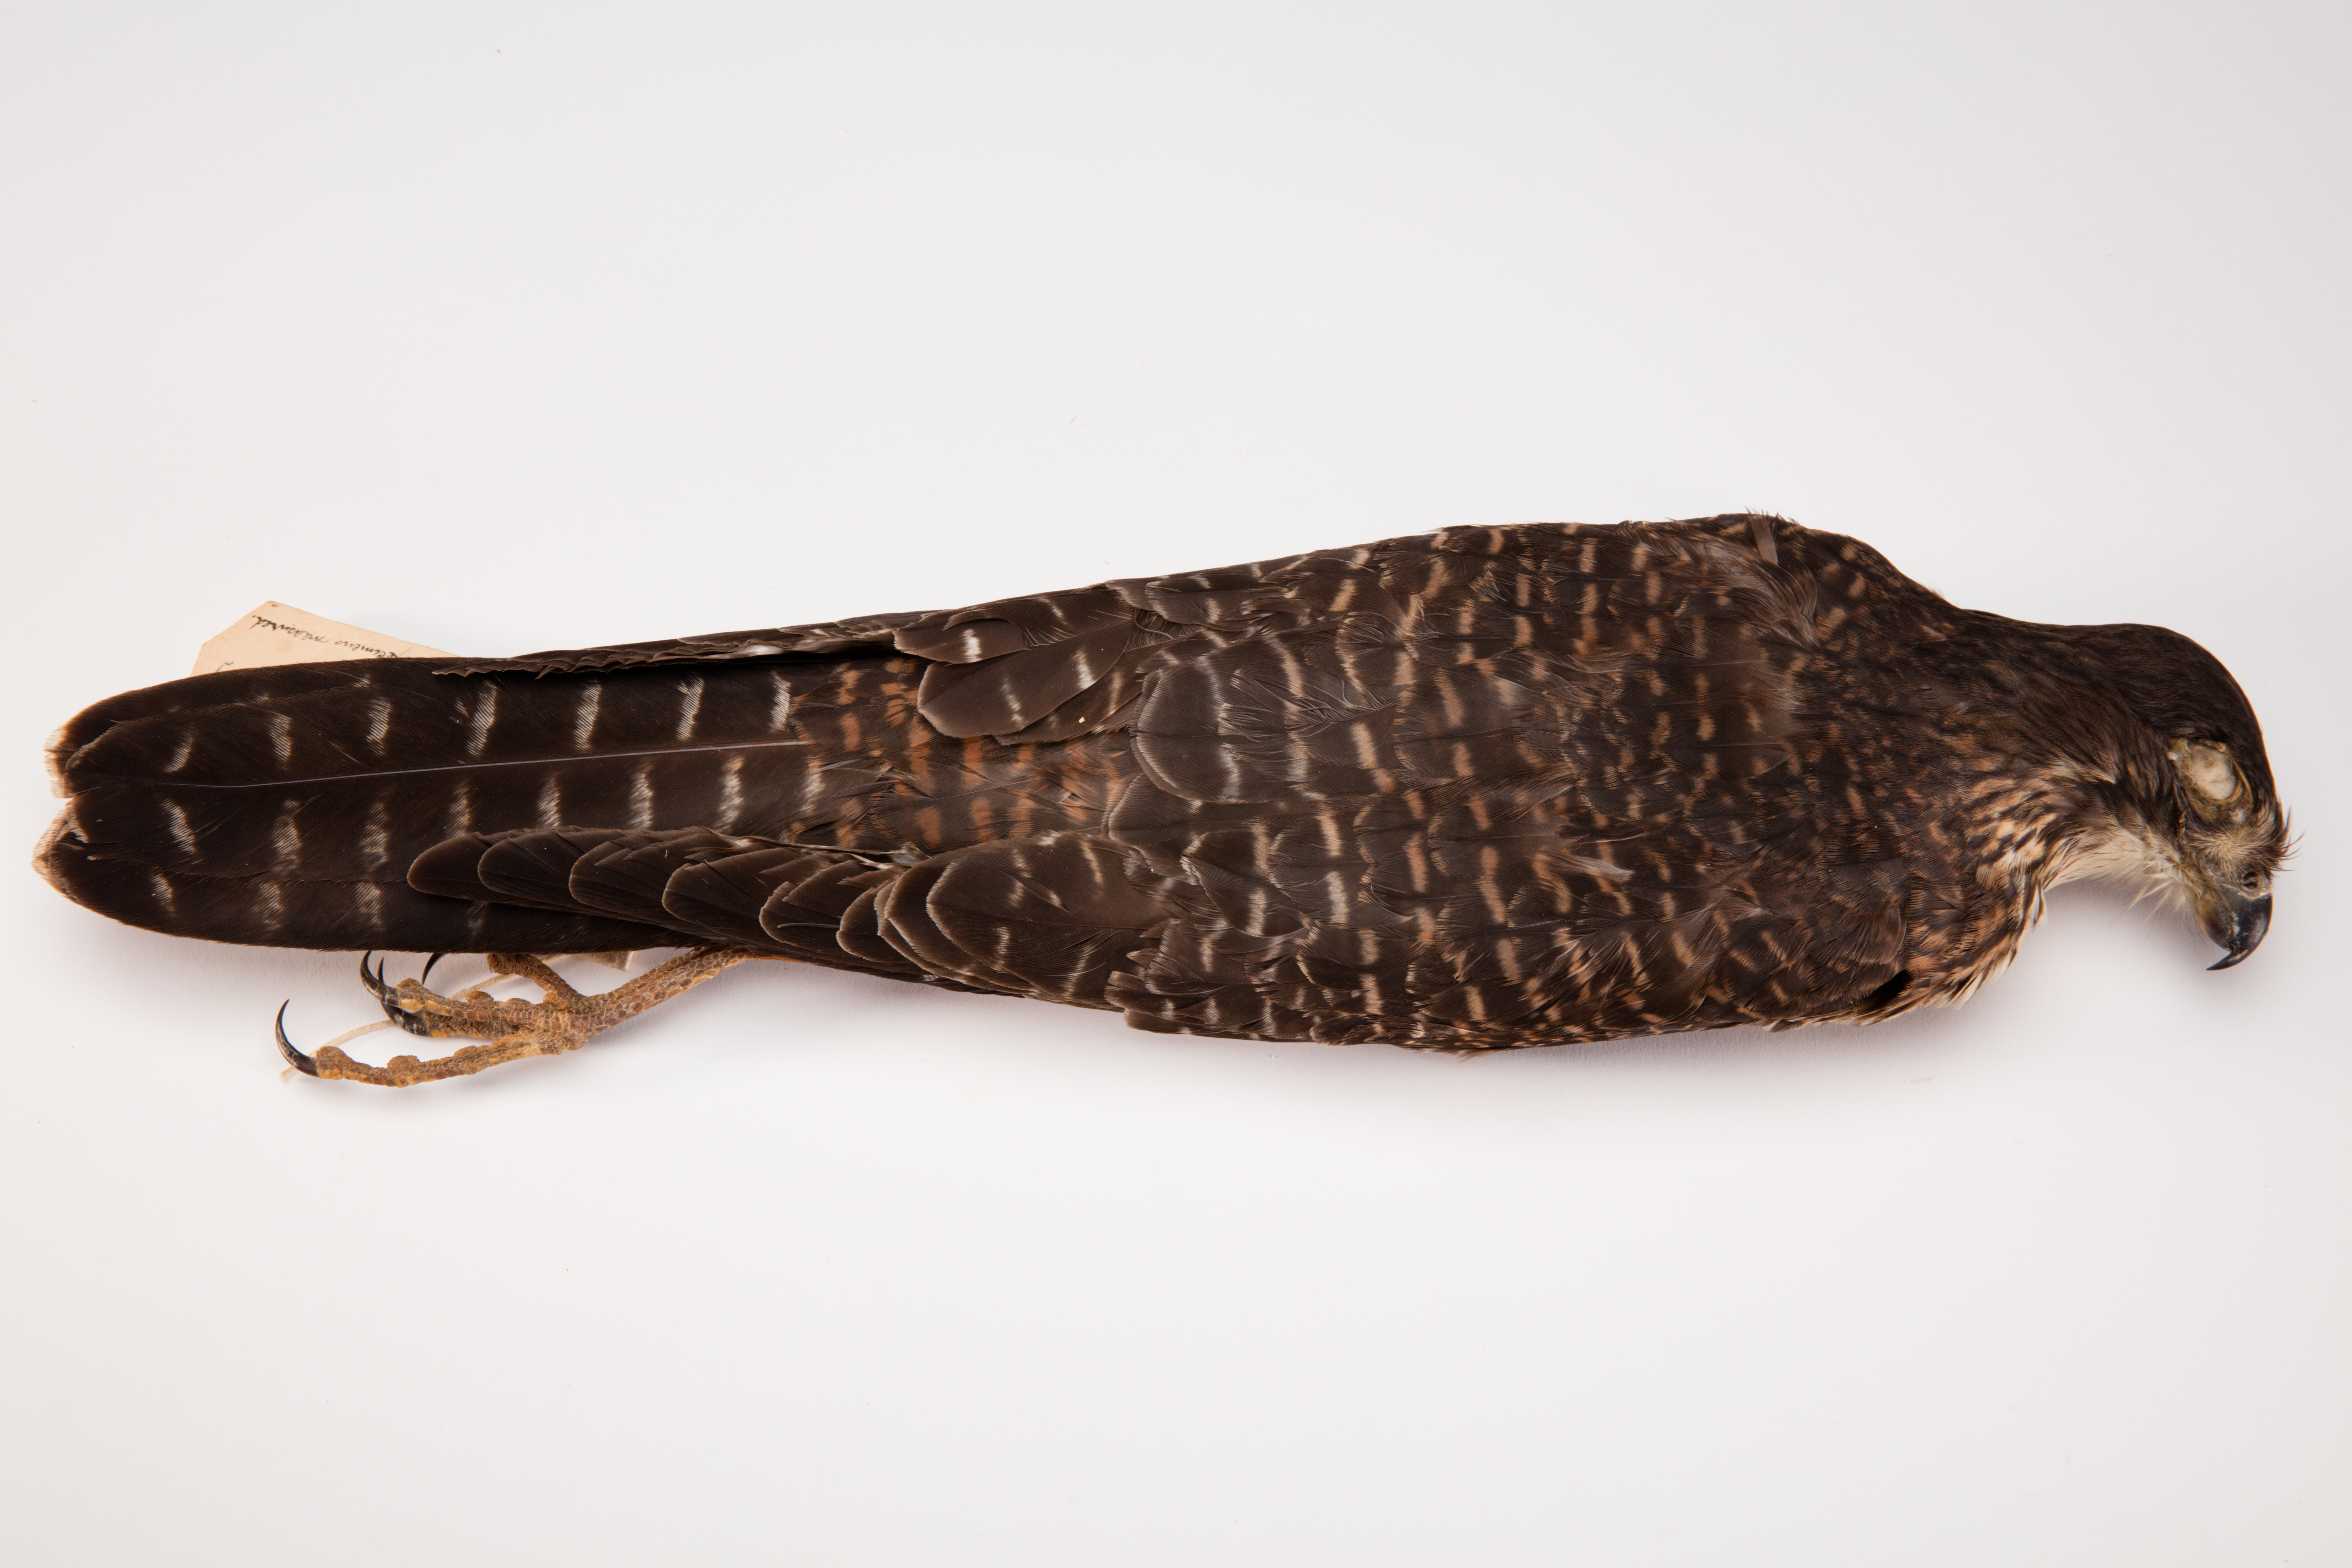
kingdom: Animalia
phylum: Chordata
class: Aves
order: Falconiformes
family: Falconidae
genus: Falco
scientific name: Falco novaeseelandiae
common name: New zealand falcon
